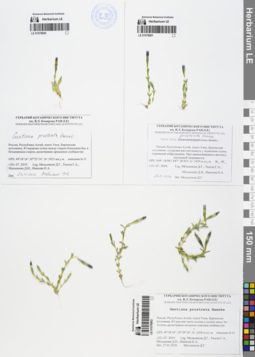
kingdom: Plantae
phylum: Tracheophyta
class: Magnoliopsida
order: Gentianales
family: Gentianaceae
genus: Gentiana
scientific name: Gentiana prostrata
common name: Moss gentian
